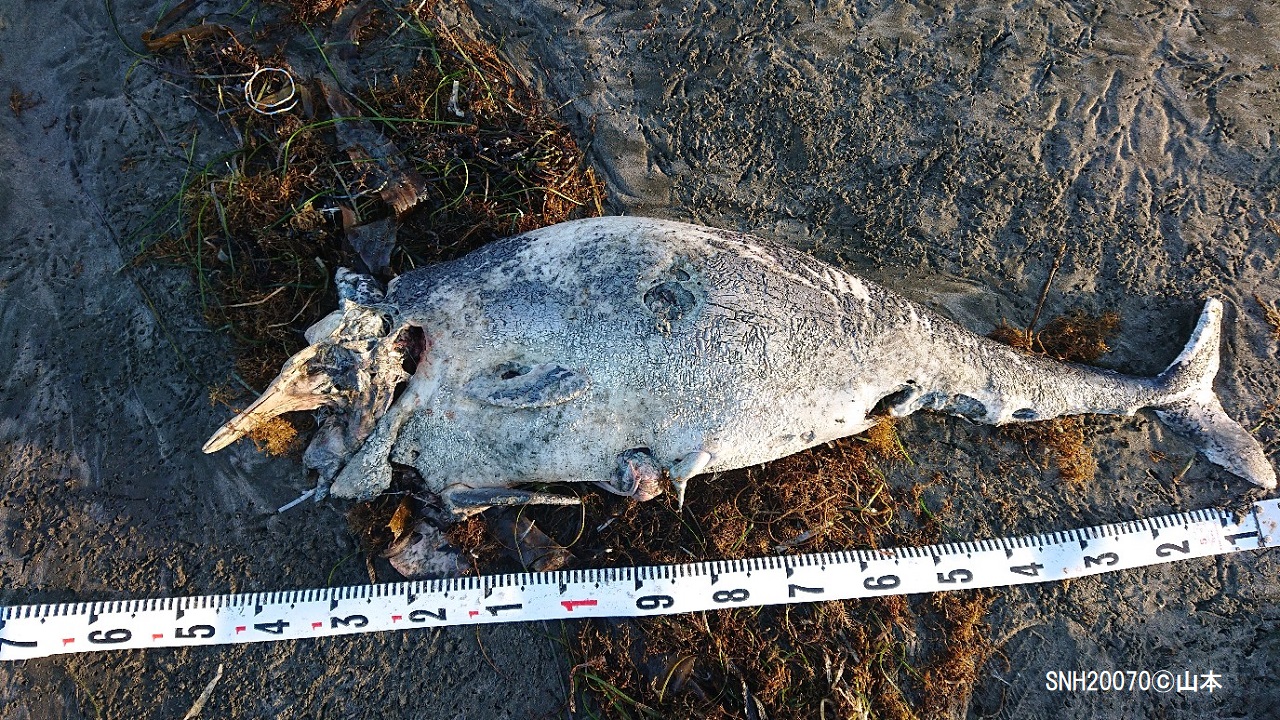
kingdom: Animalia
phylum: Chordata
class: Mammalia
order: Cetacea
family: Phocoenidae
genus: Phocoena
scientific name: Phocoena phocoena
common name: Harbour porpoise
